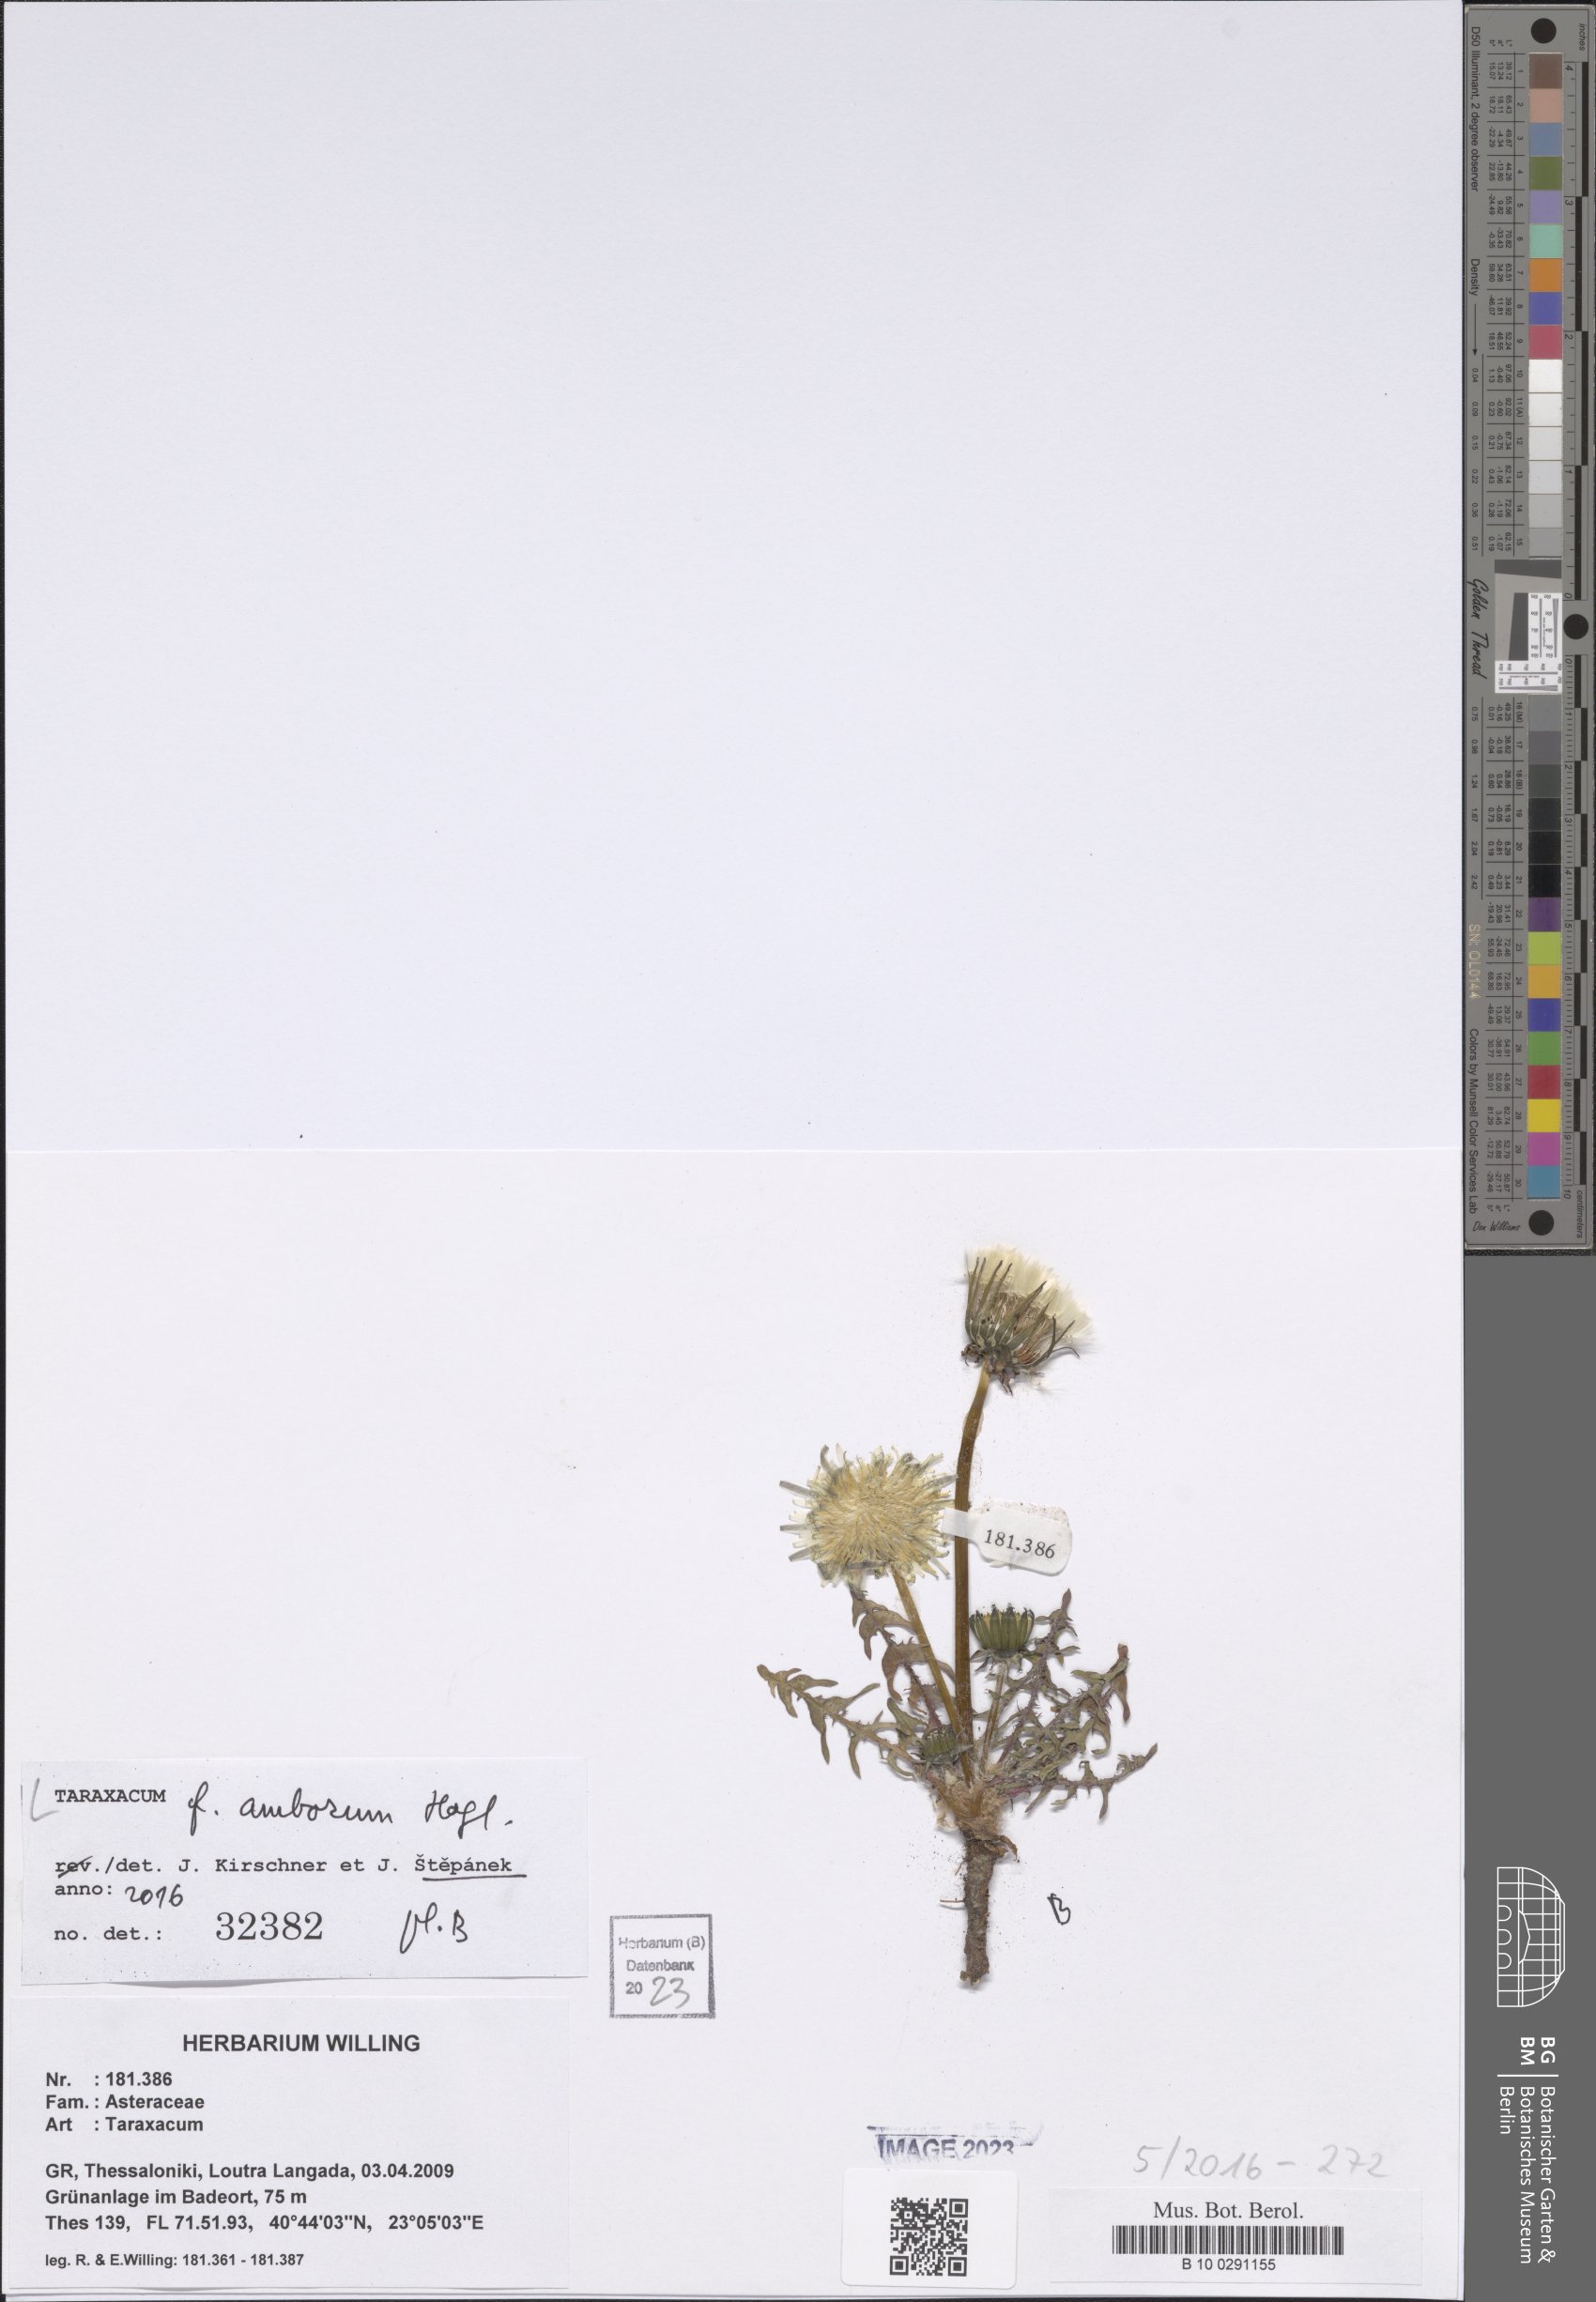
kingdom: Plantae
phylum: Tracheophyta
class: Magnoliopsida
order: Asterales
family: Asteraceae
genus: Taraxacum
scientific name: Taraxacum amborum
